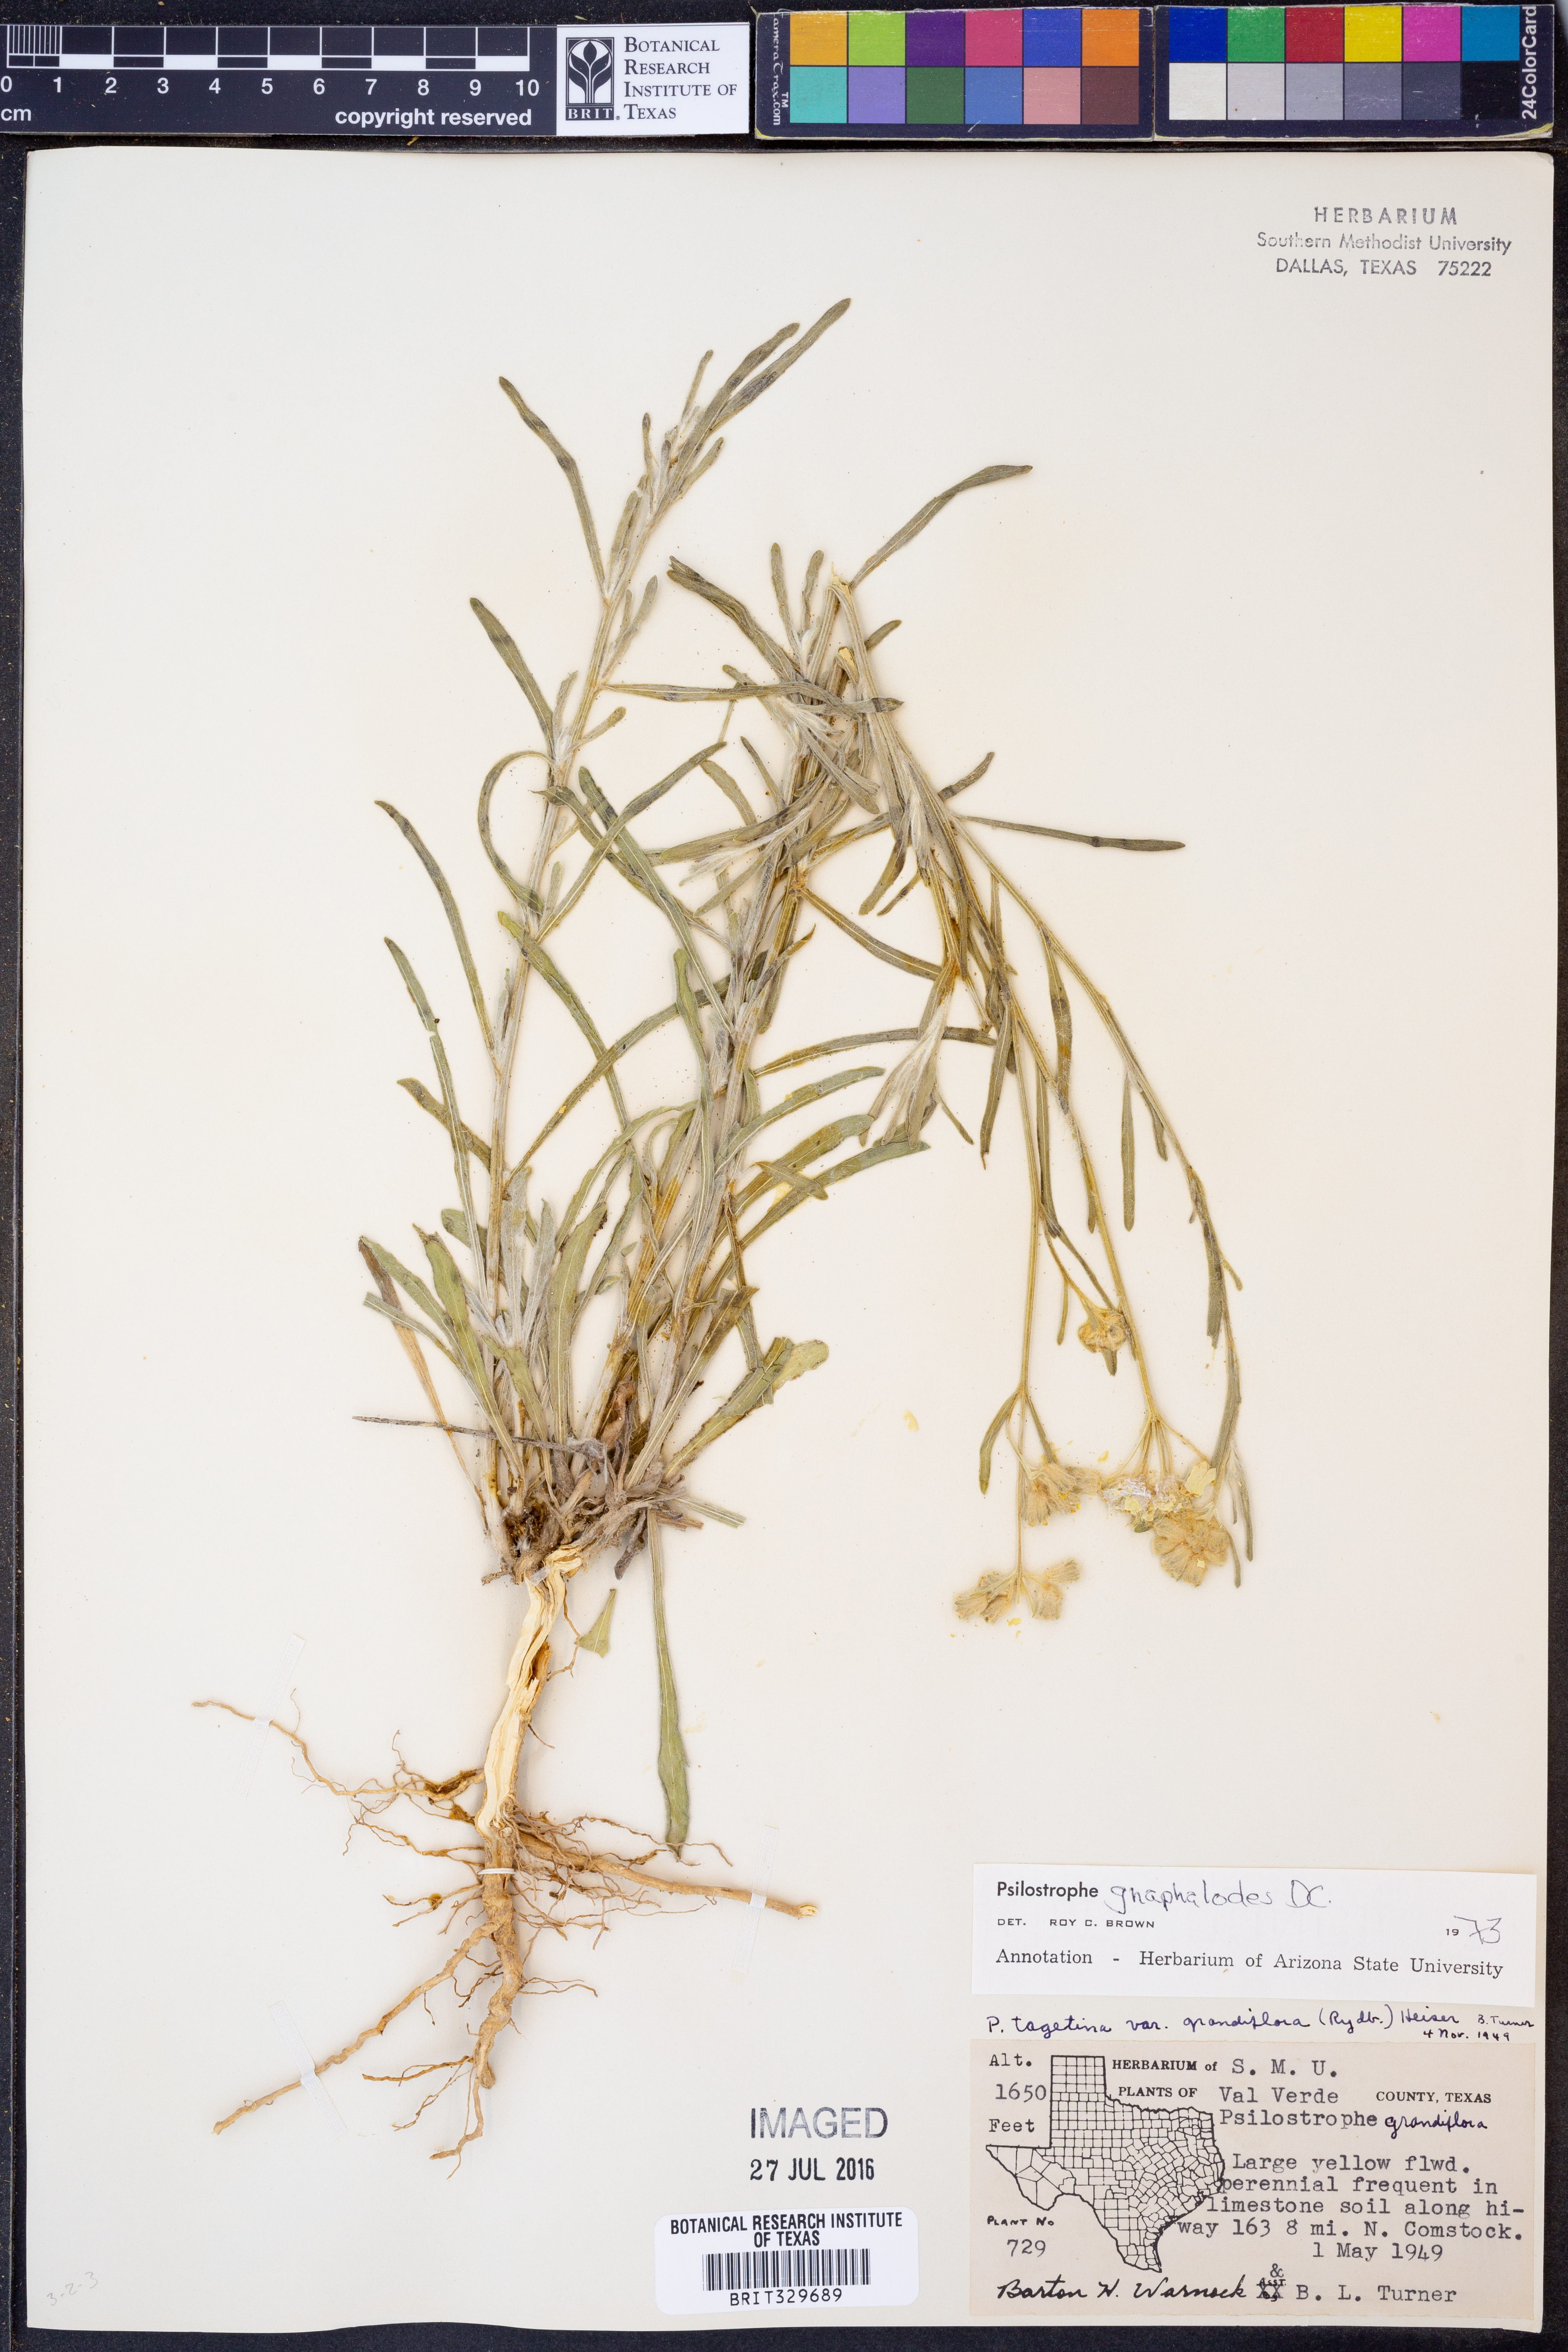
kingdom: Plantae
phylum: Tracheophyta
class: Magnoliopsida
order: Asterales
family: Asteraceae
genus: Psilostrophe
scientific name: Psilostrophe gnaphalioides
